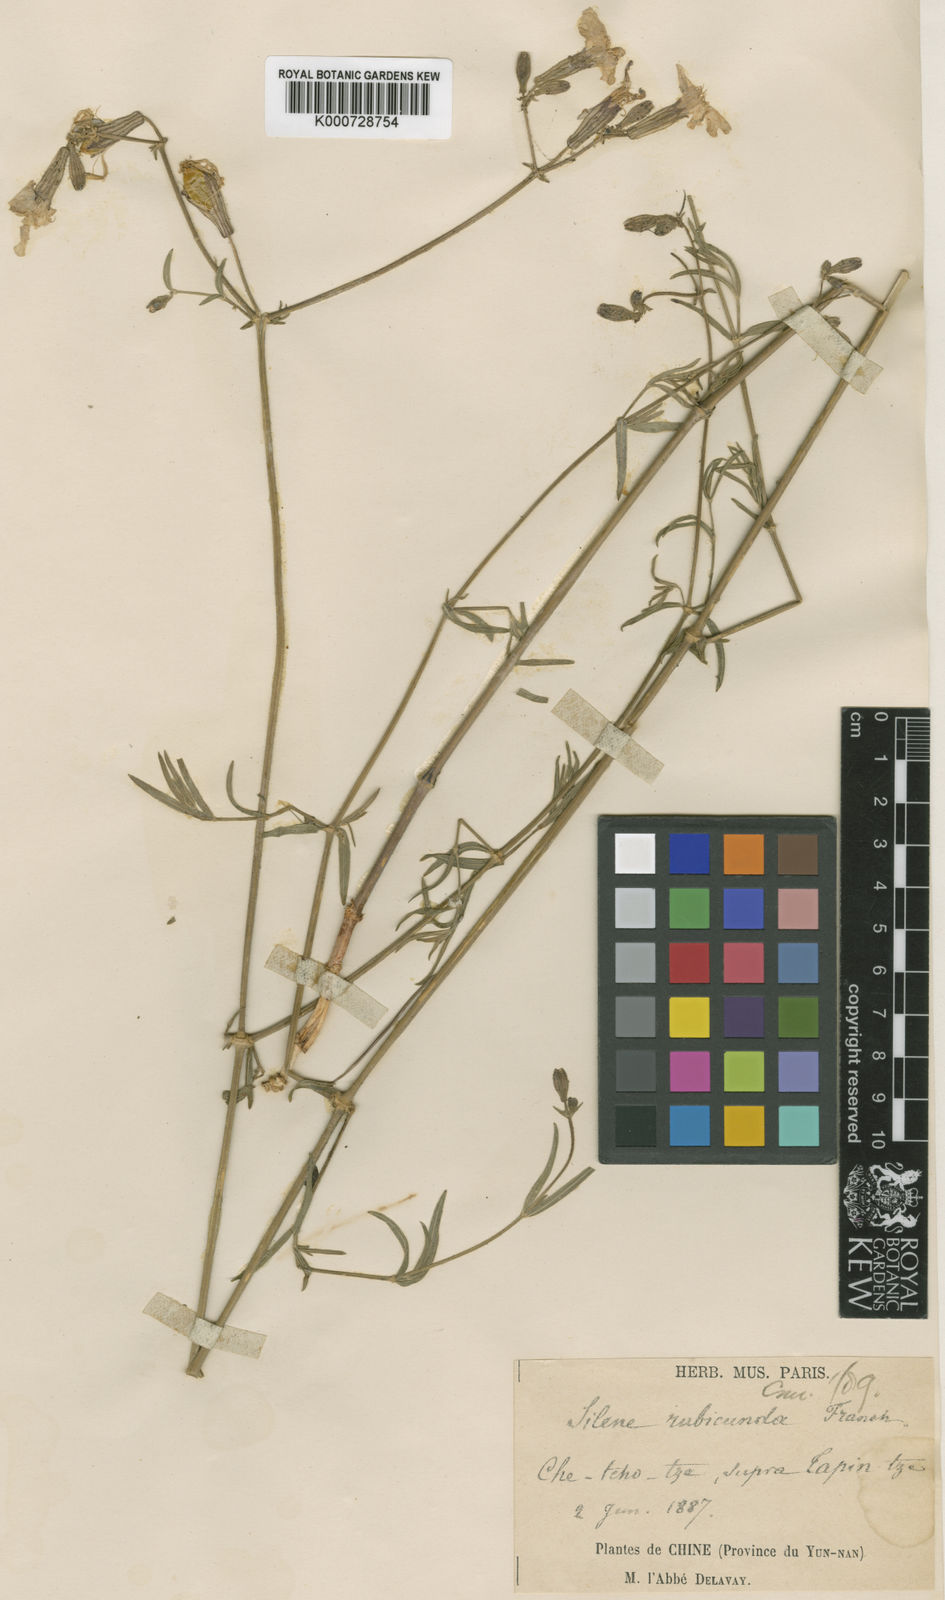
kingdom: Plantae
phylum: Tracheophyta
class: Magnoliopsida
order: Caryophyllales
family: Caryophyllaceae
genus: Silene
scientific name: Silene napuligera
